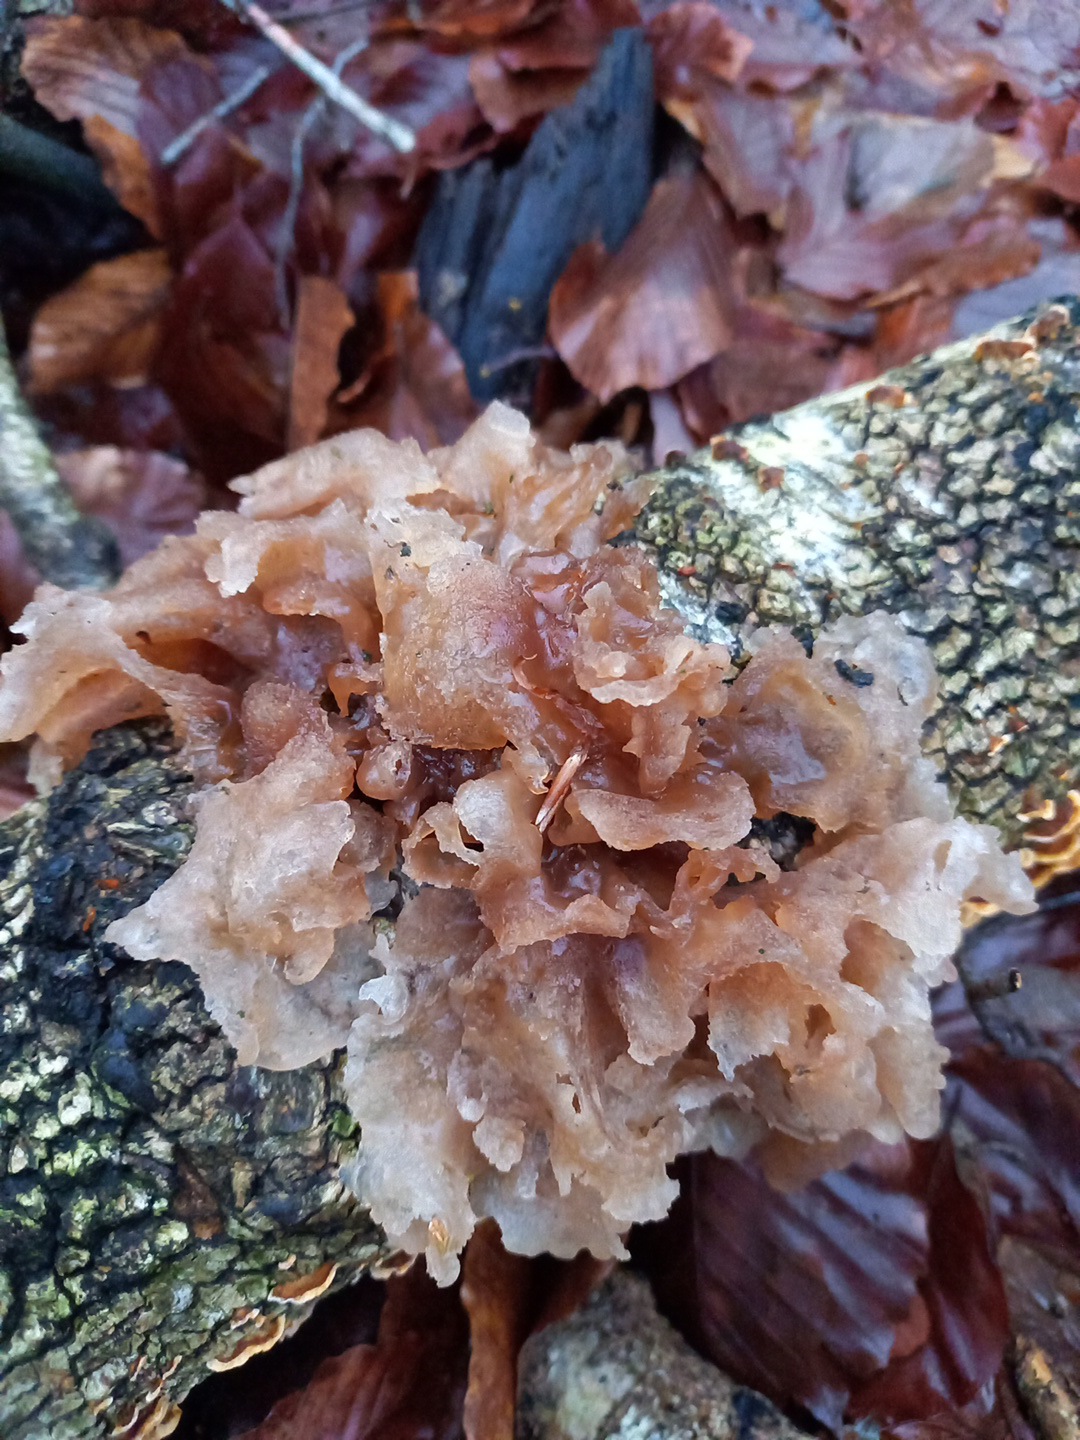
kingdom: Fungi
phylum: Basidiomycota
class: Tremellomycetes
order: Tremellales
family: Tremellaceae
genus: Phaeotremella
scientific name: Phaeotremella frondosa
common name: kæmpe-bævresvamp
